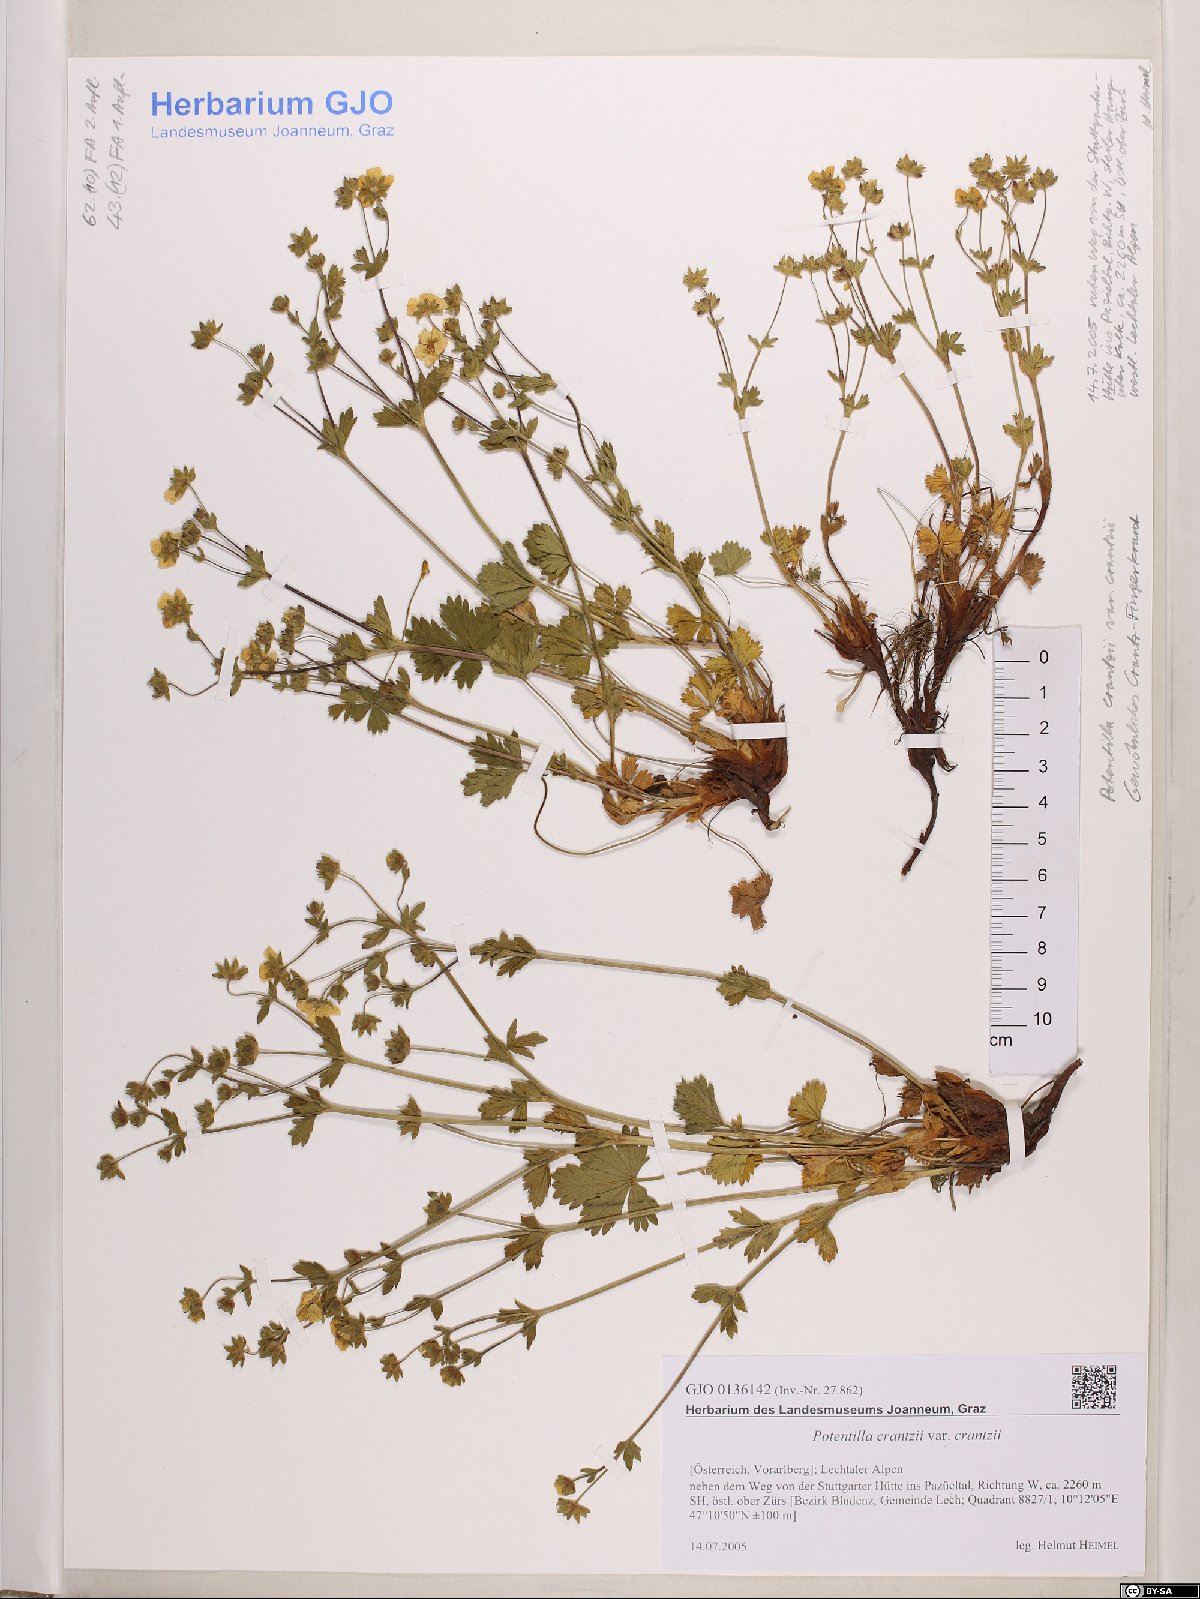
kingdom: Plantae
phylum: Tracheophyta
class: Magnoliopsida
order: Rosales
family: Rosaceae
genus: Potentilla
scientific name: Potentilla crantzii
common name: Alpine cinquefoil
